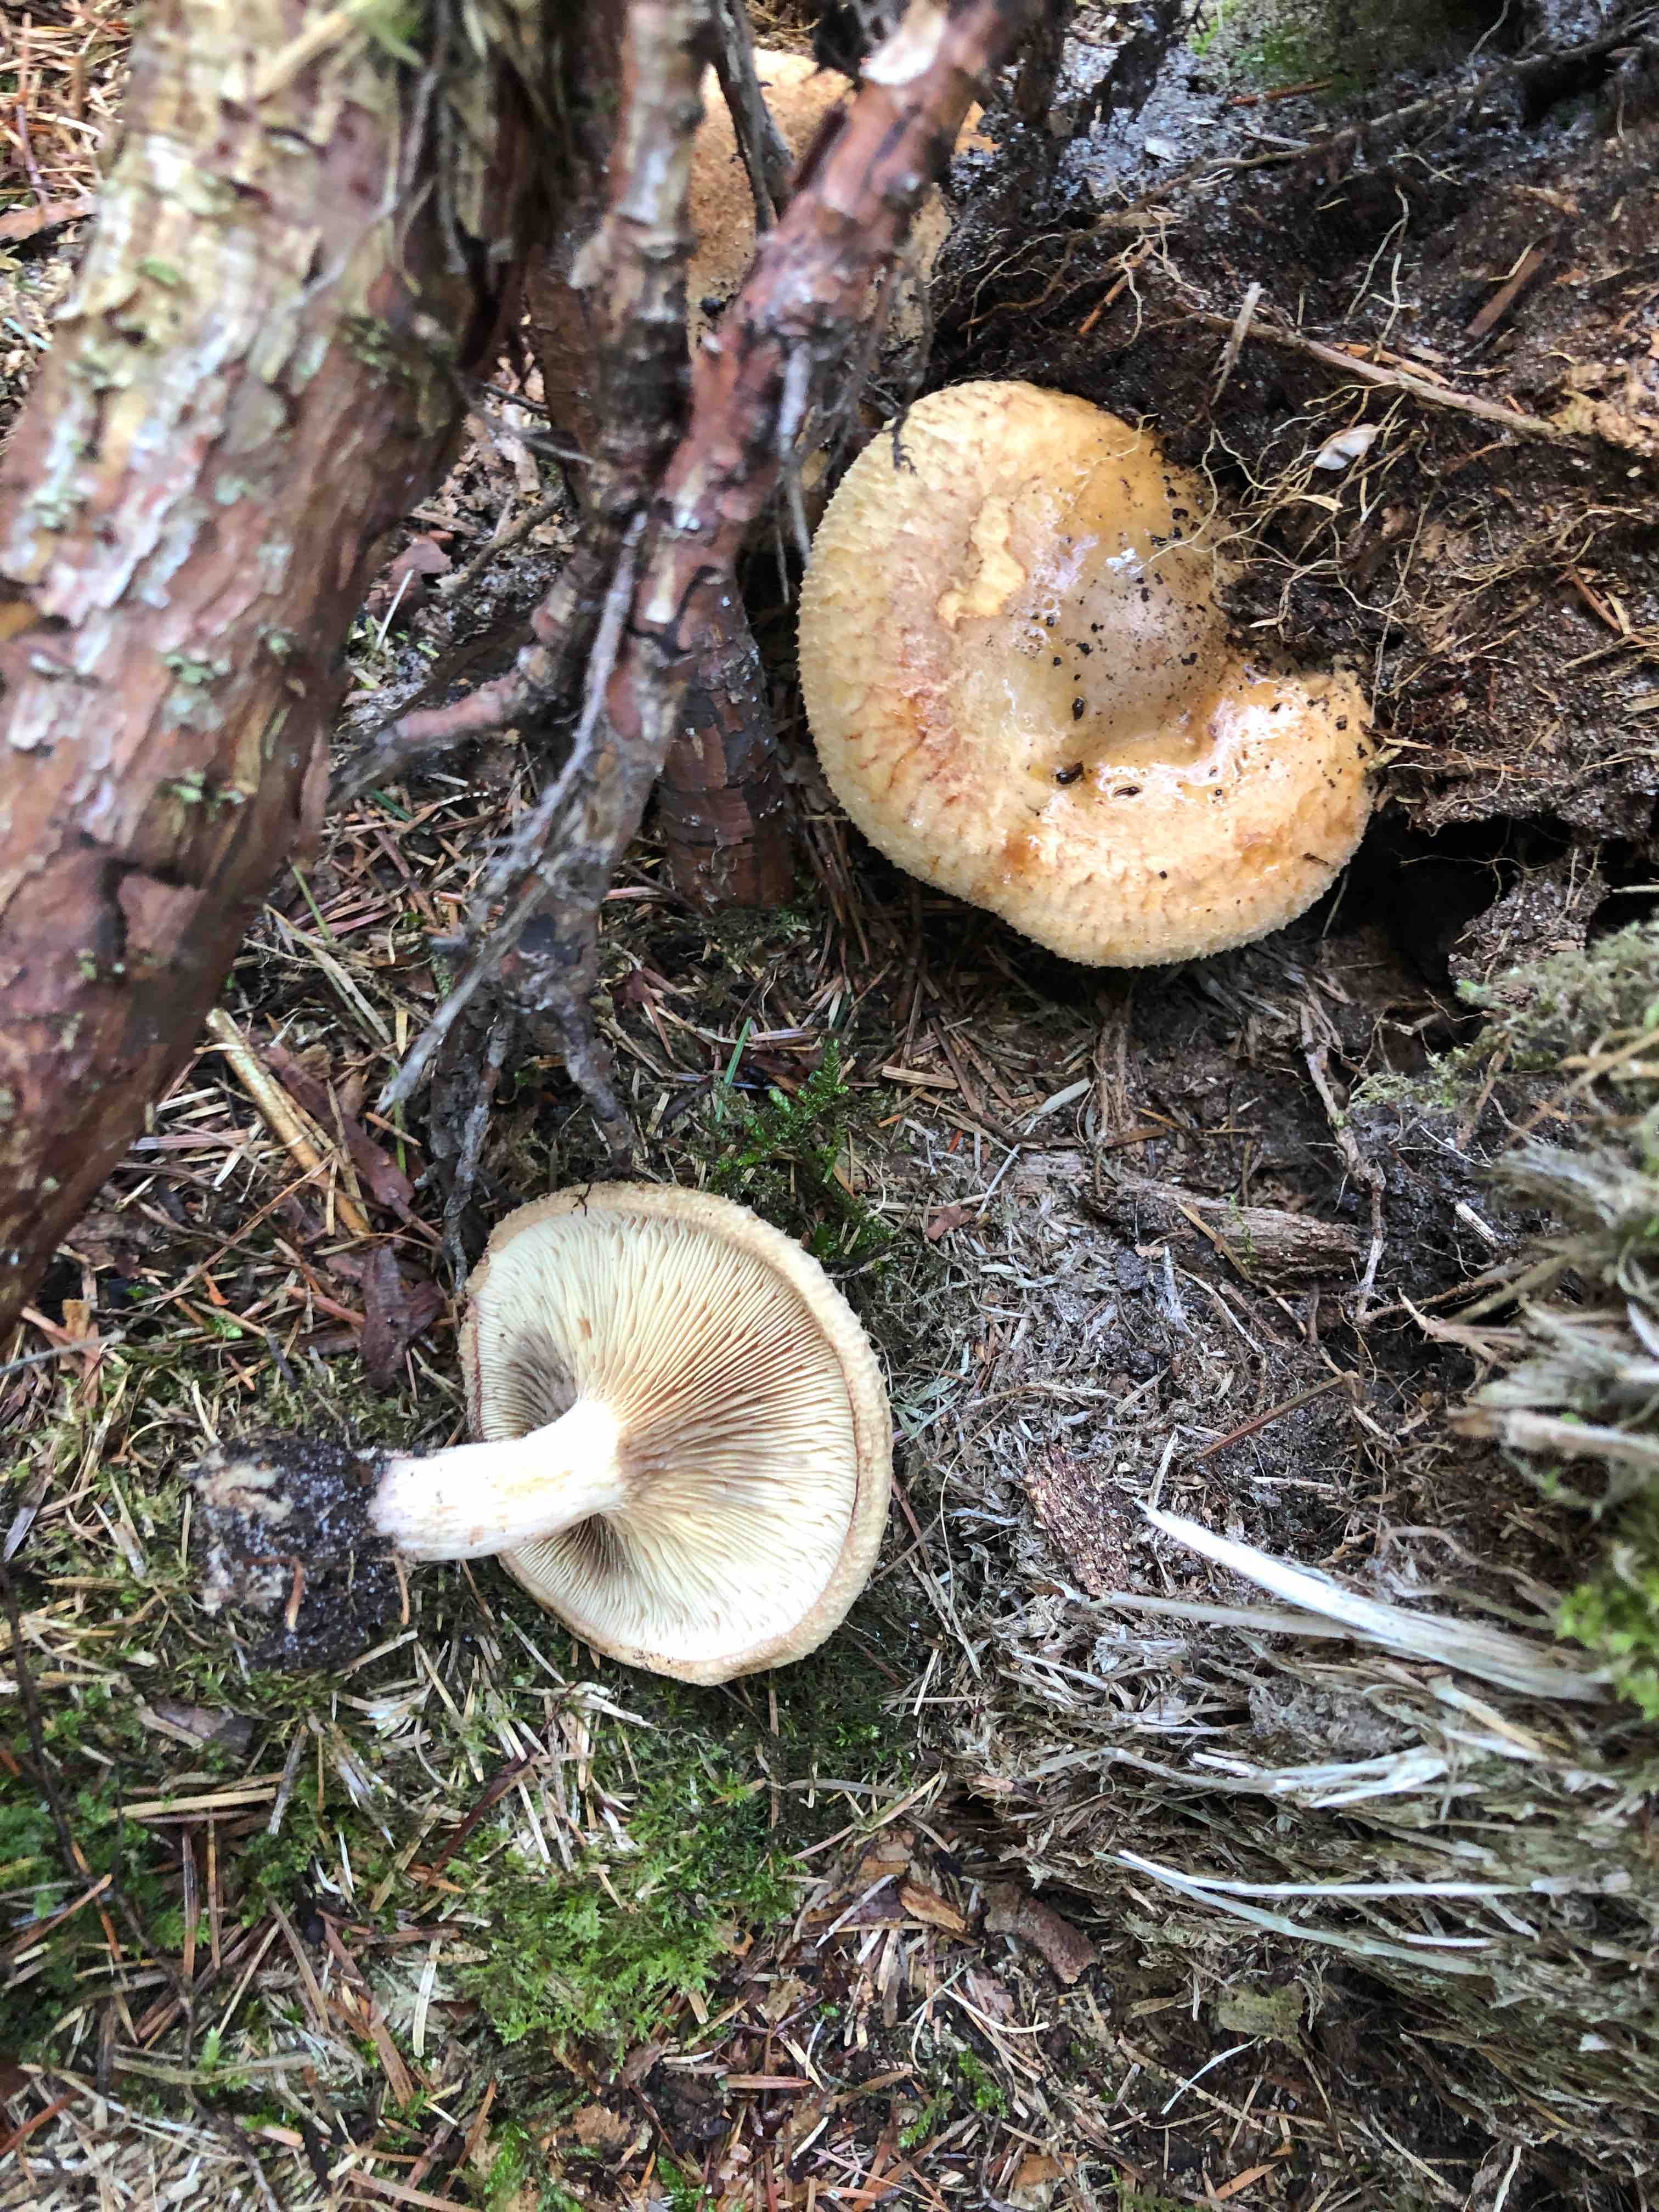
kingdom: Fungi
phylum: Basidiomycota
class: Agaricomycetes
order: Boletales
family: Paxillaceae
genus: Paxillus
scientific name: Paxillus involutus
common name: almindelig netbladhat
